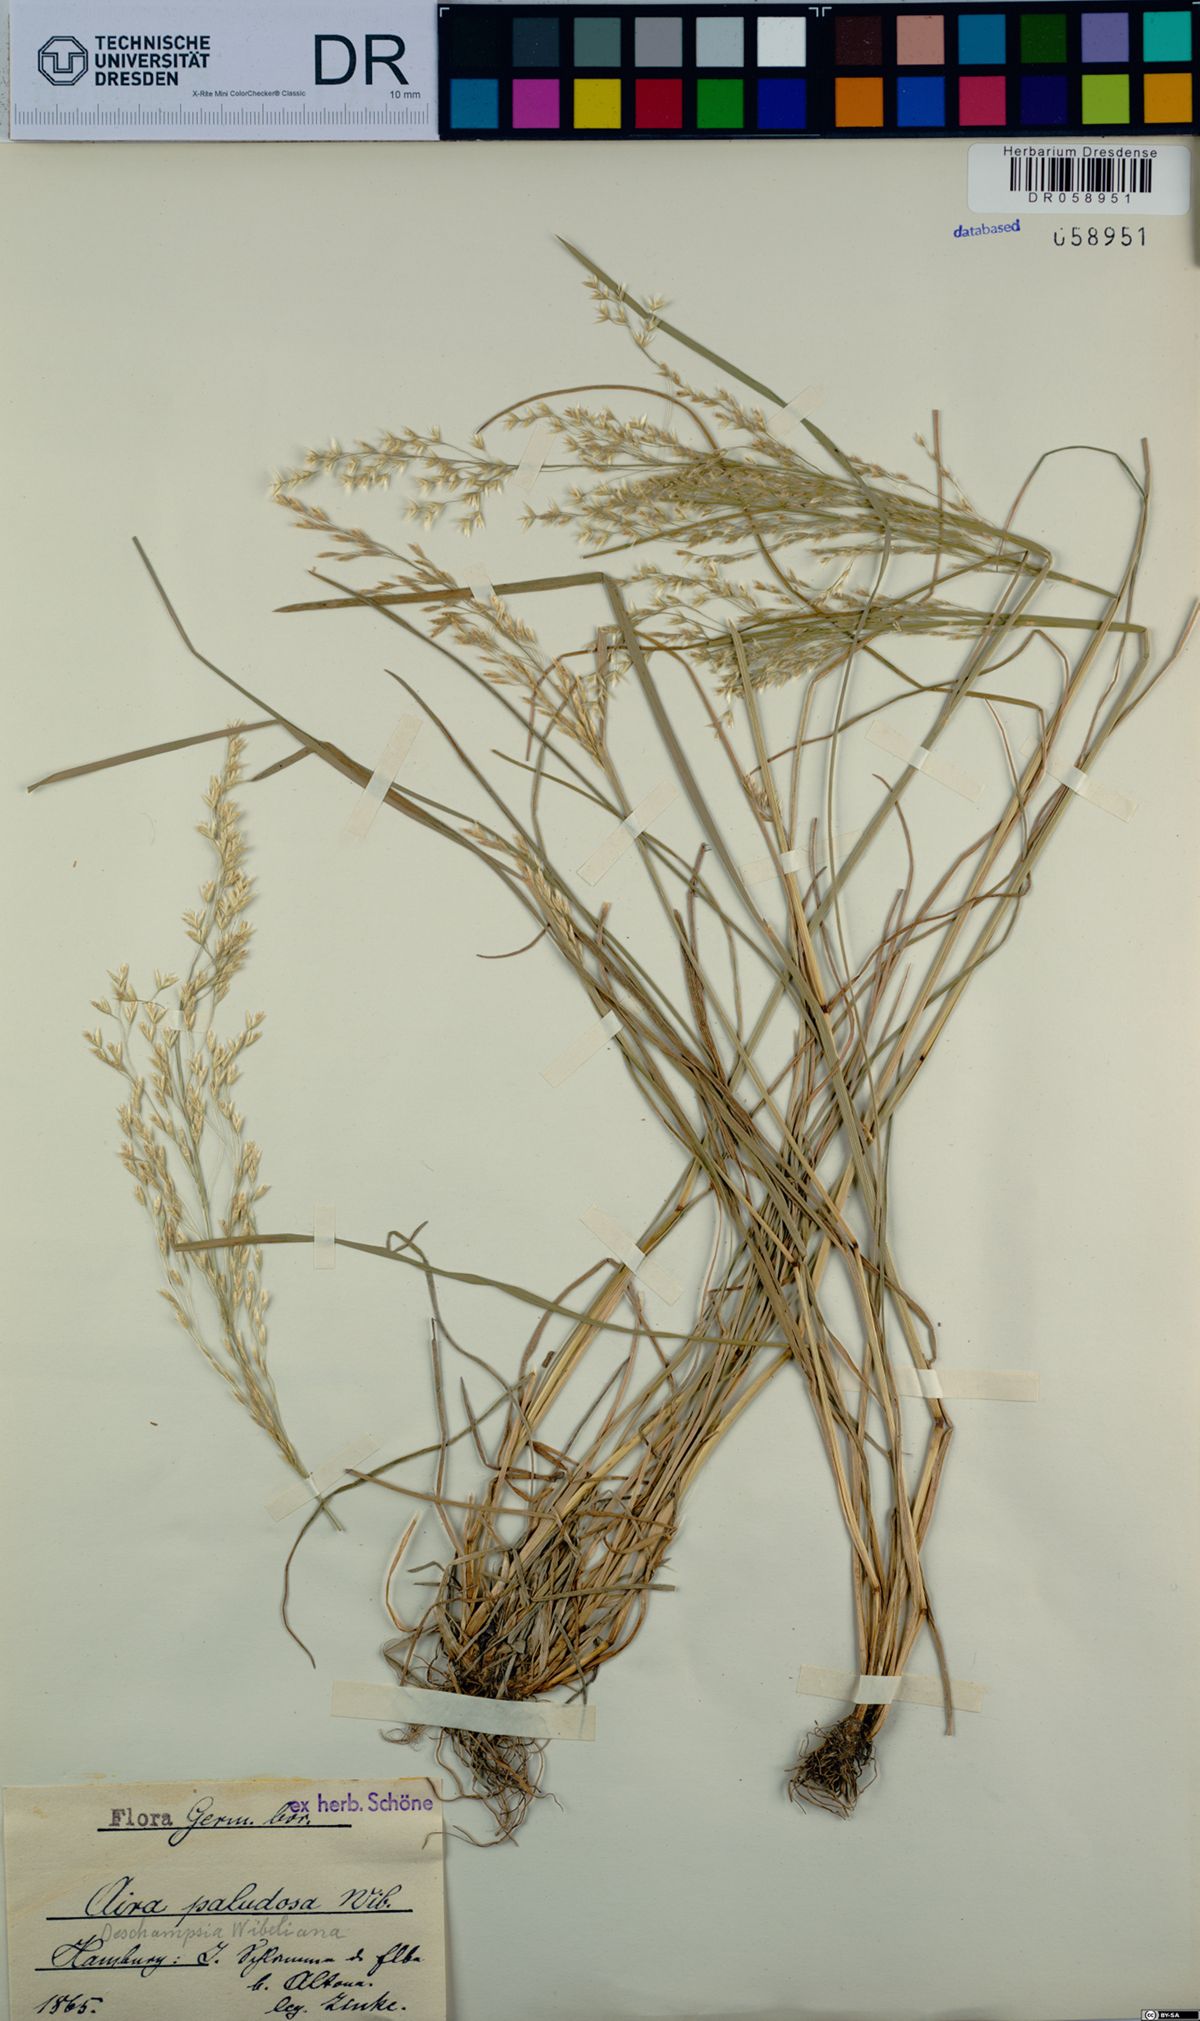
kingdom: Plantae
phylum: Tracheophyta
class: Liliopsida
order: Poales
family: Poaceae
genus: Deschampsia
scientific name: Deschampsia cespitosa
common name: Tufted hair-grass
